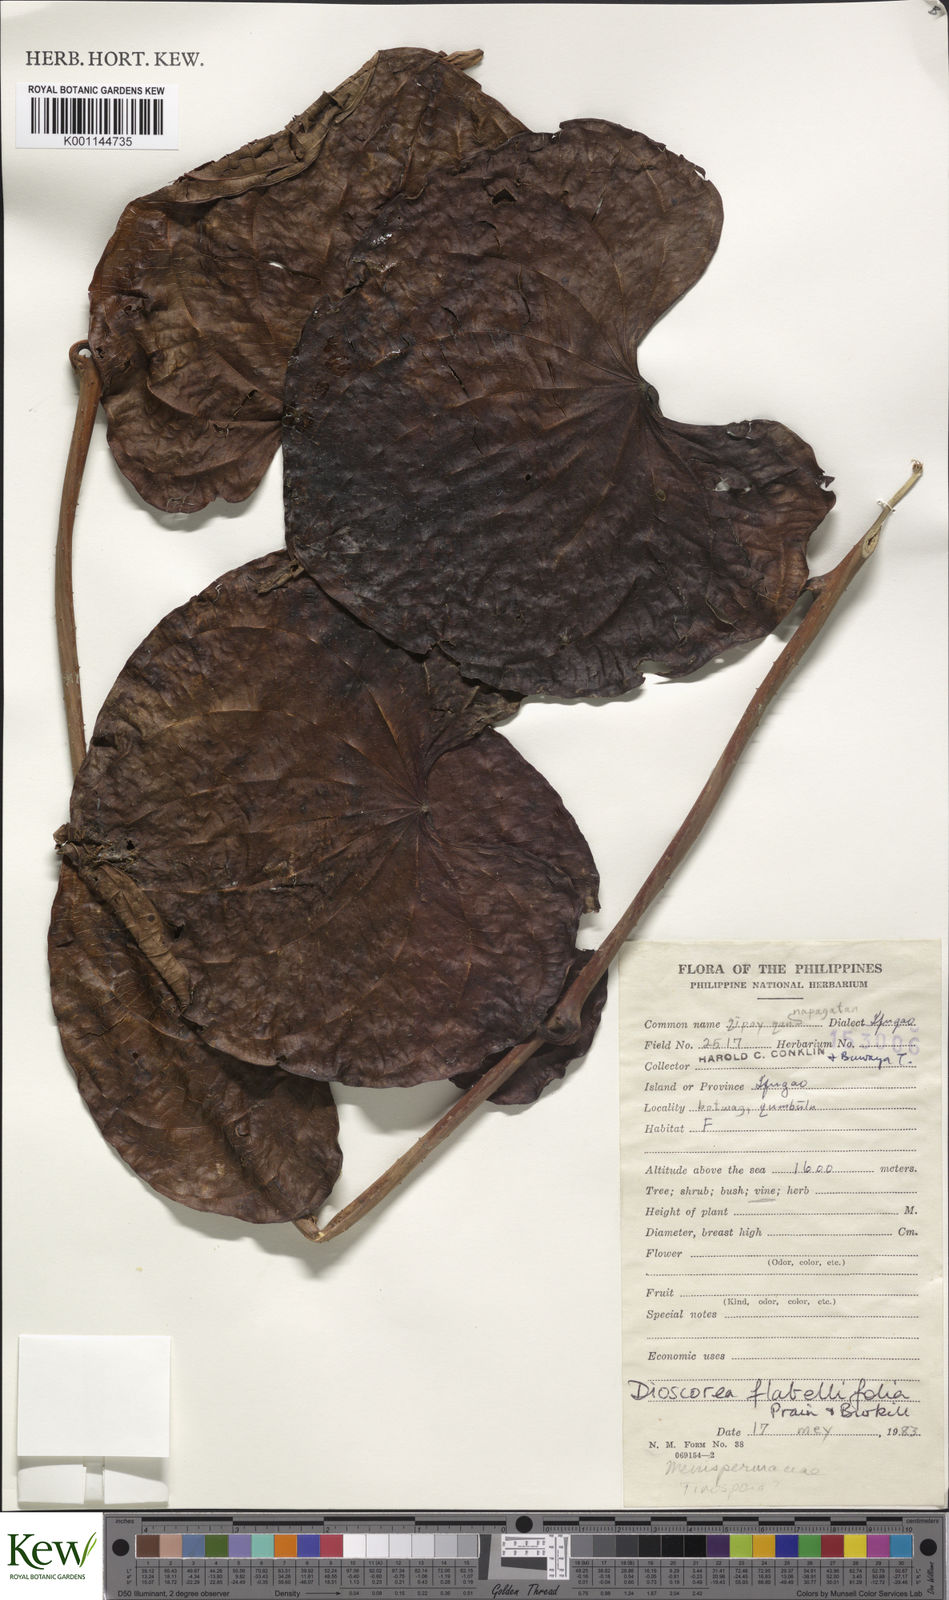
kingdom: Plantae
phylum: Tracheophyta
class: Liliopsida
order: Dioscoreales
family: Dioscoreaceae
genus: Dioscorea
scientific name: Dioscorea flabellifolia
